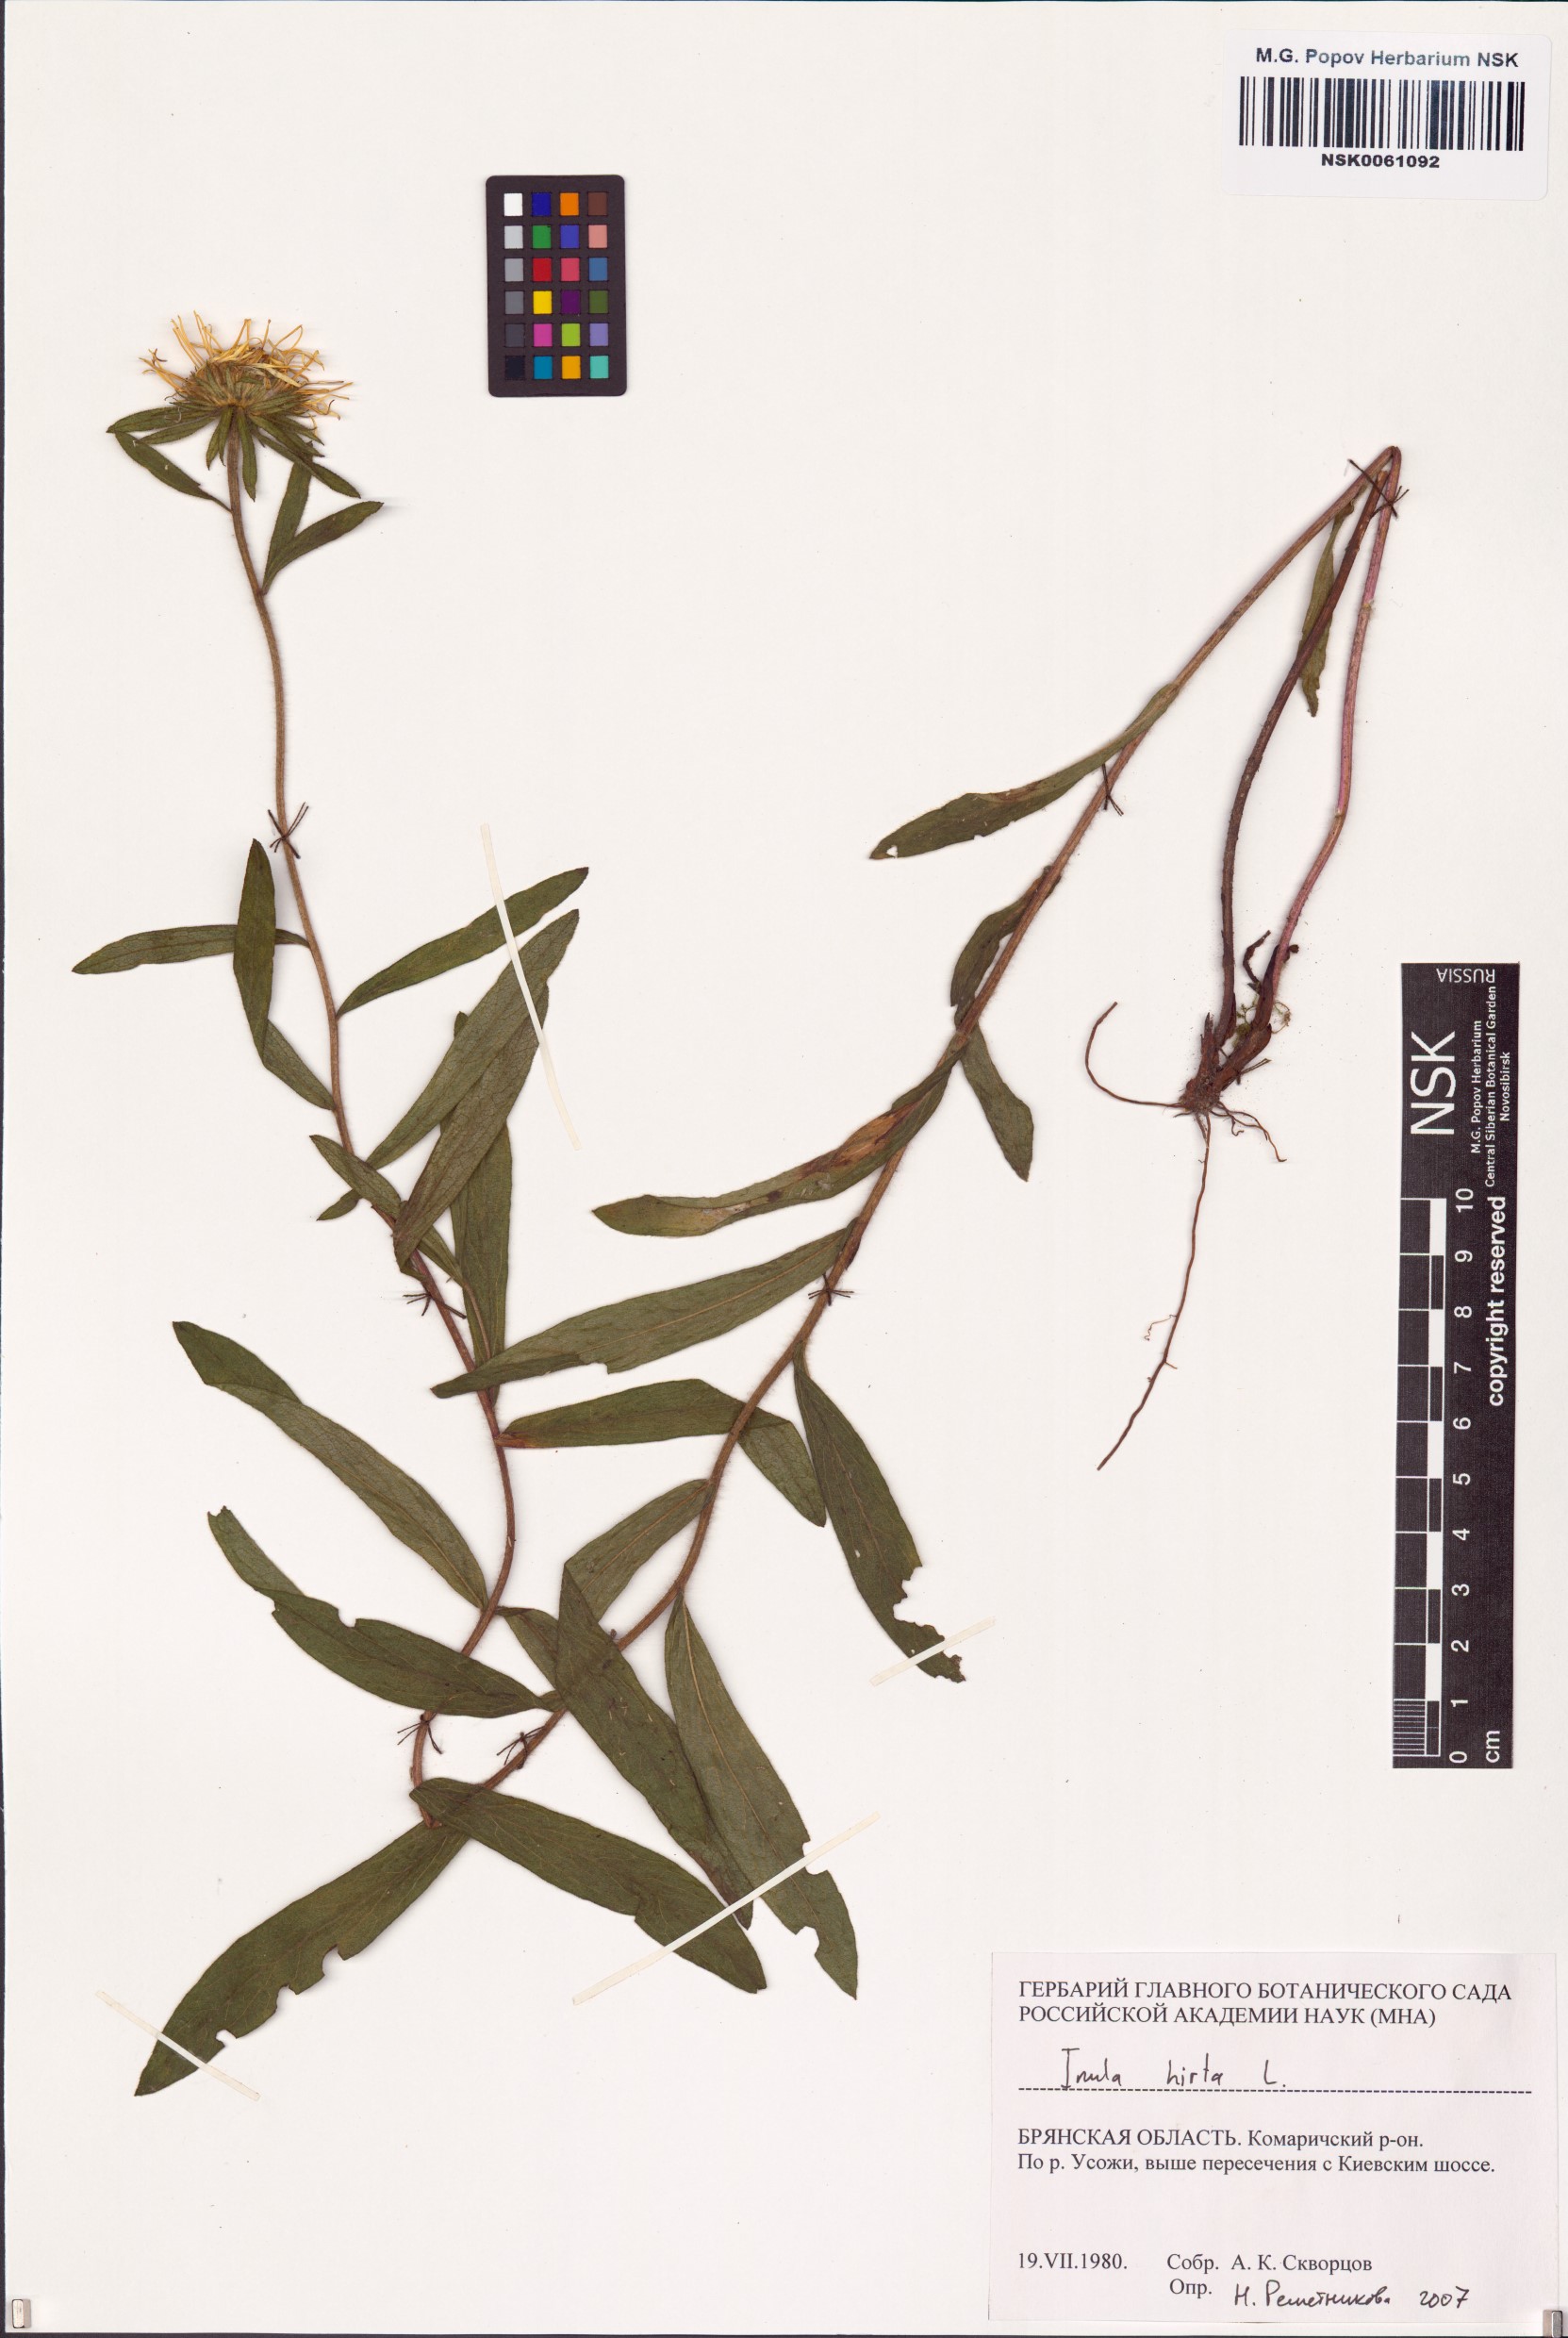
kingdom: Plantae
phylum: Tracheophyta
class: Magnoliopsida
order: Asterales
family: Asteraceae
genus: Pentanema
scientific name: Pentanema hirtum
